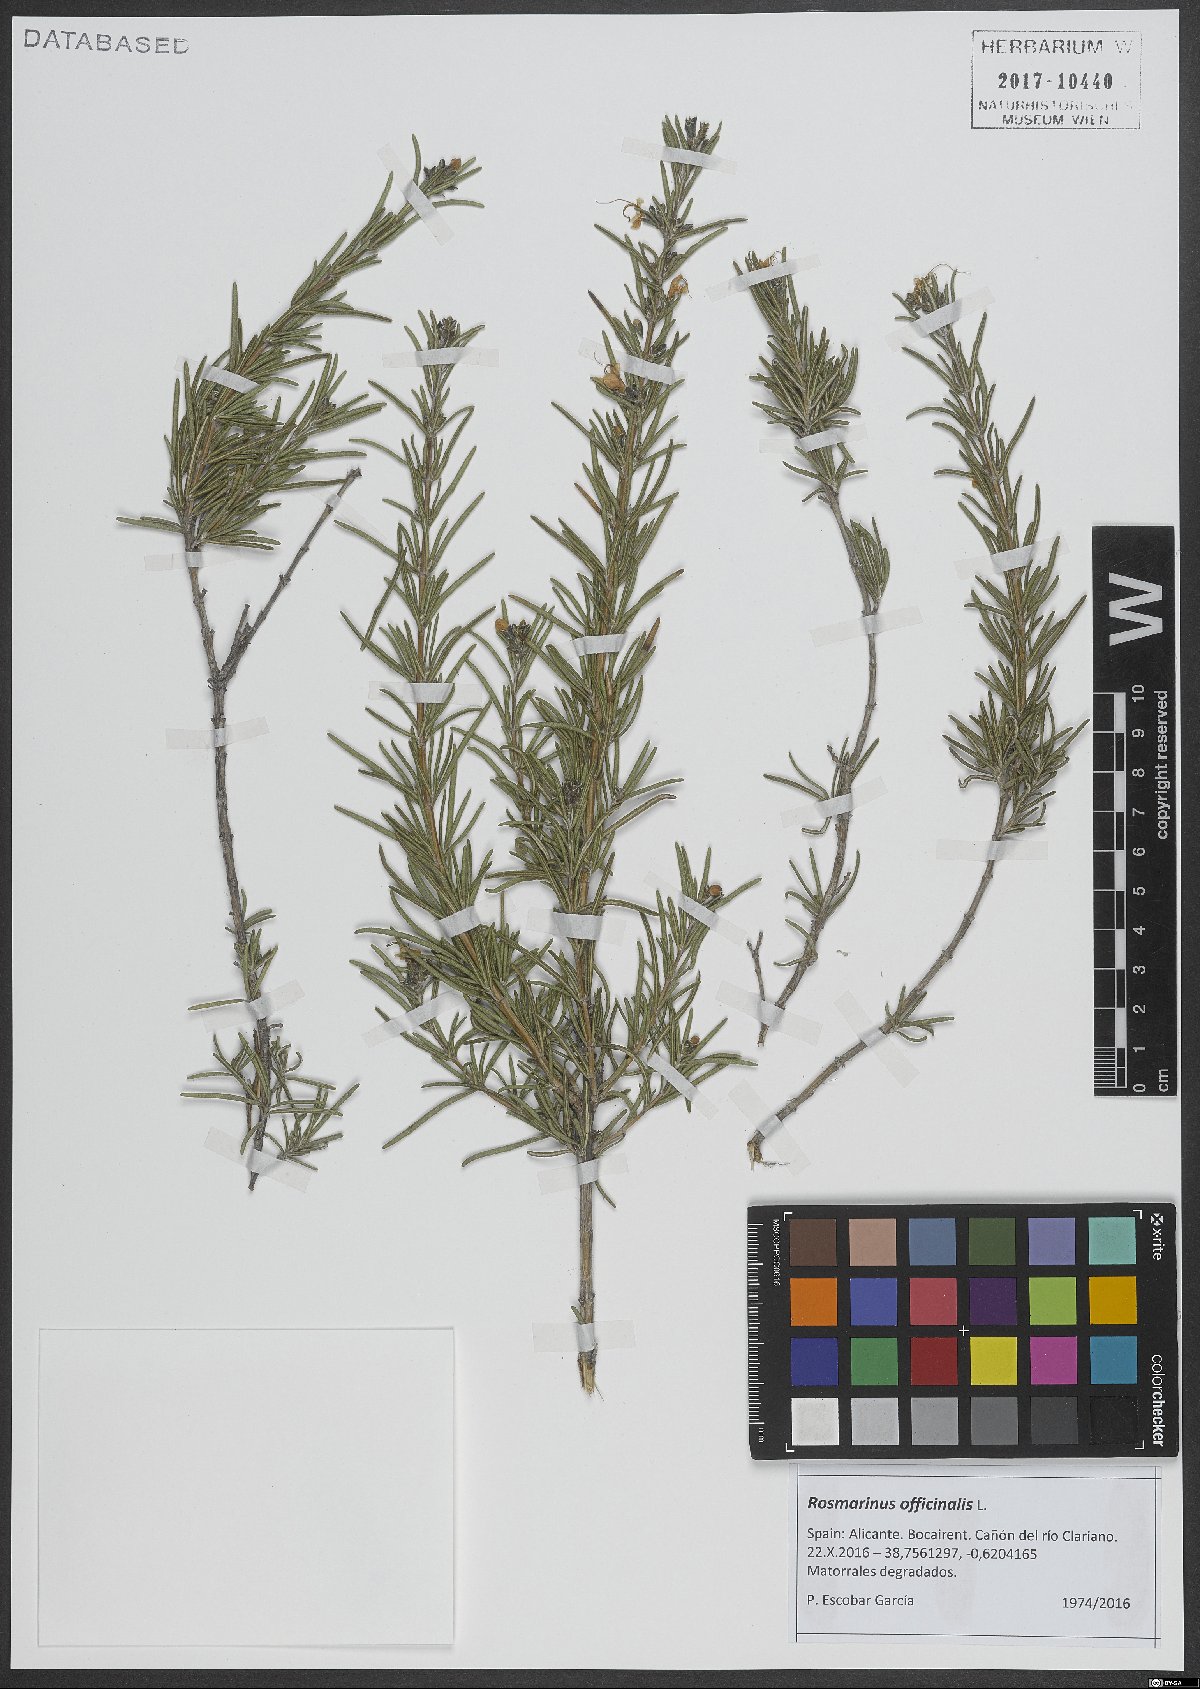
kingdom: Plantae
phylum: Tracheophyta
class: Magnoliopsida
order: Lamiales
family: Lamiaceae
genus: Salvia
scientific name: Salvia rosmarinus
